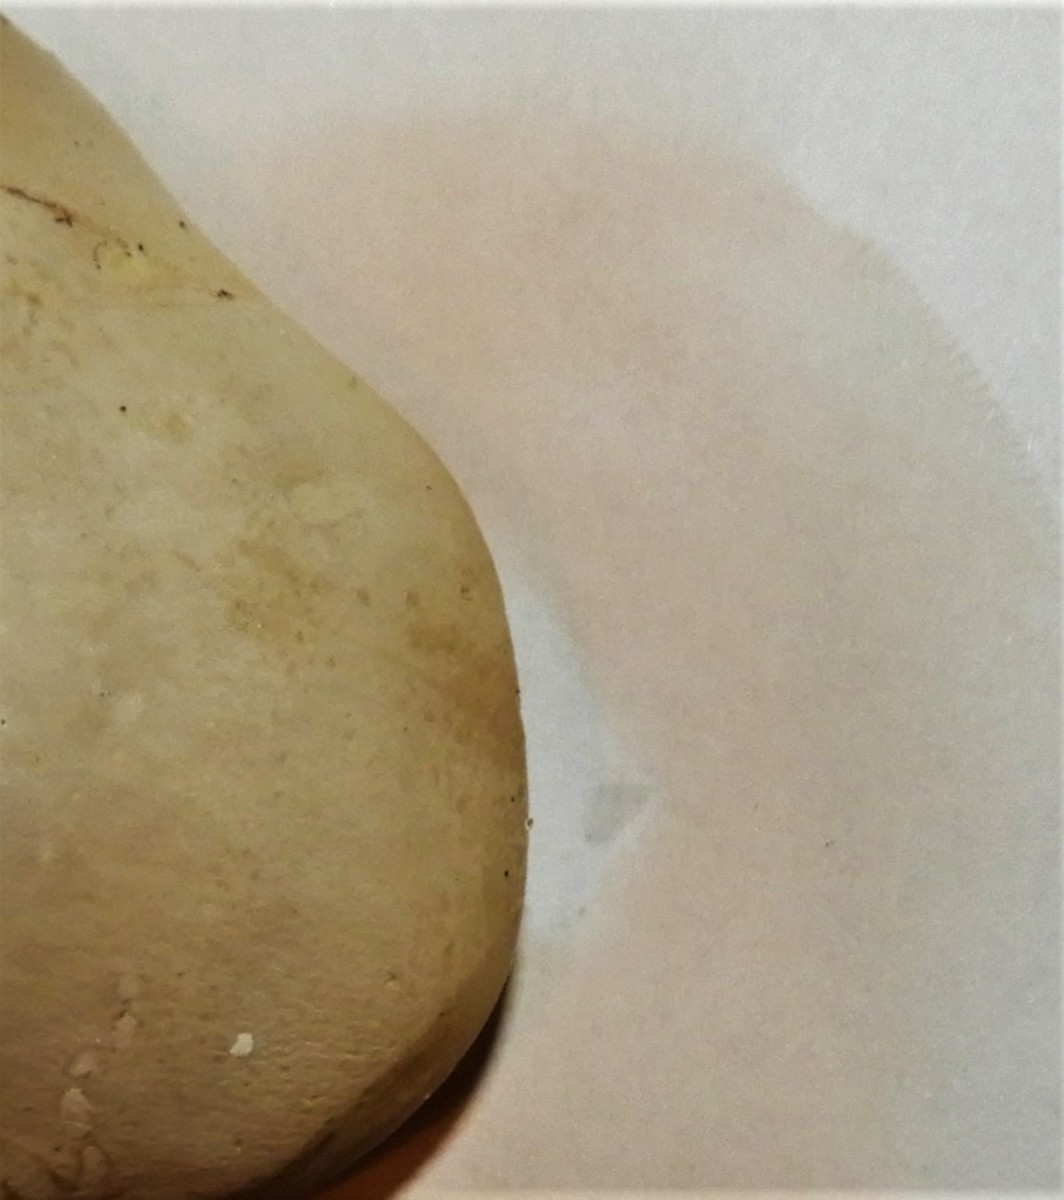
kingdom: Fungi
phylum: Basidiomycota
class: Agaricomycetes
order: Agaricales
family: Entolomataceae
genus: Clitopilus
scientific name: Clitopilus prunulus
